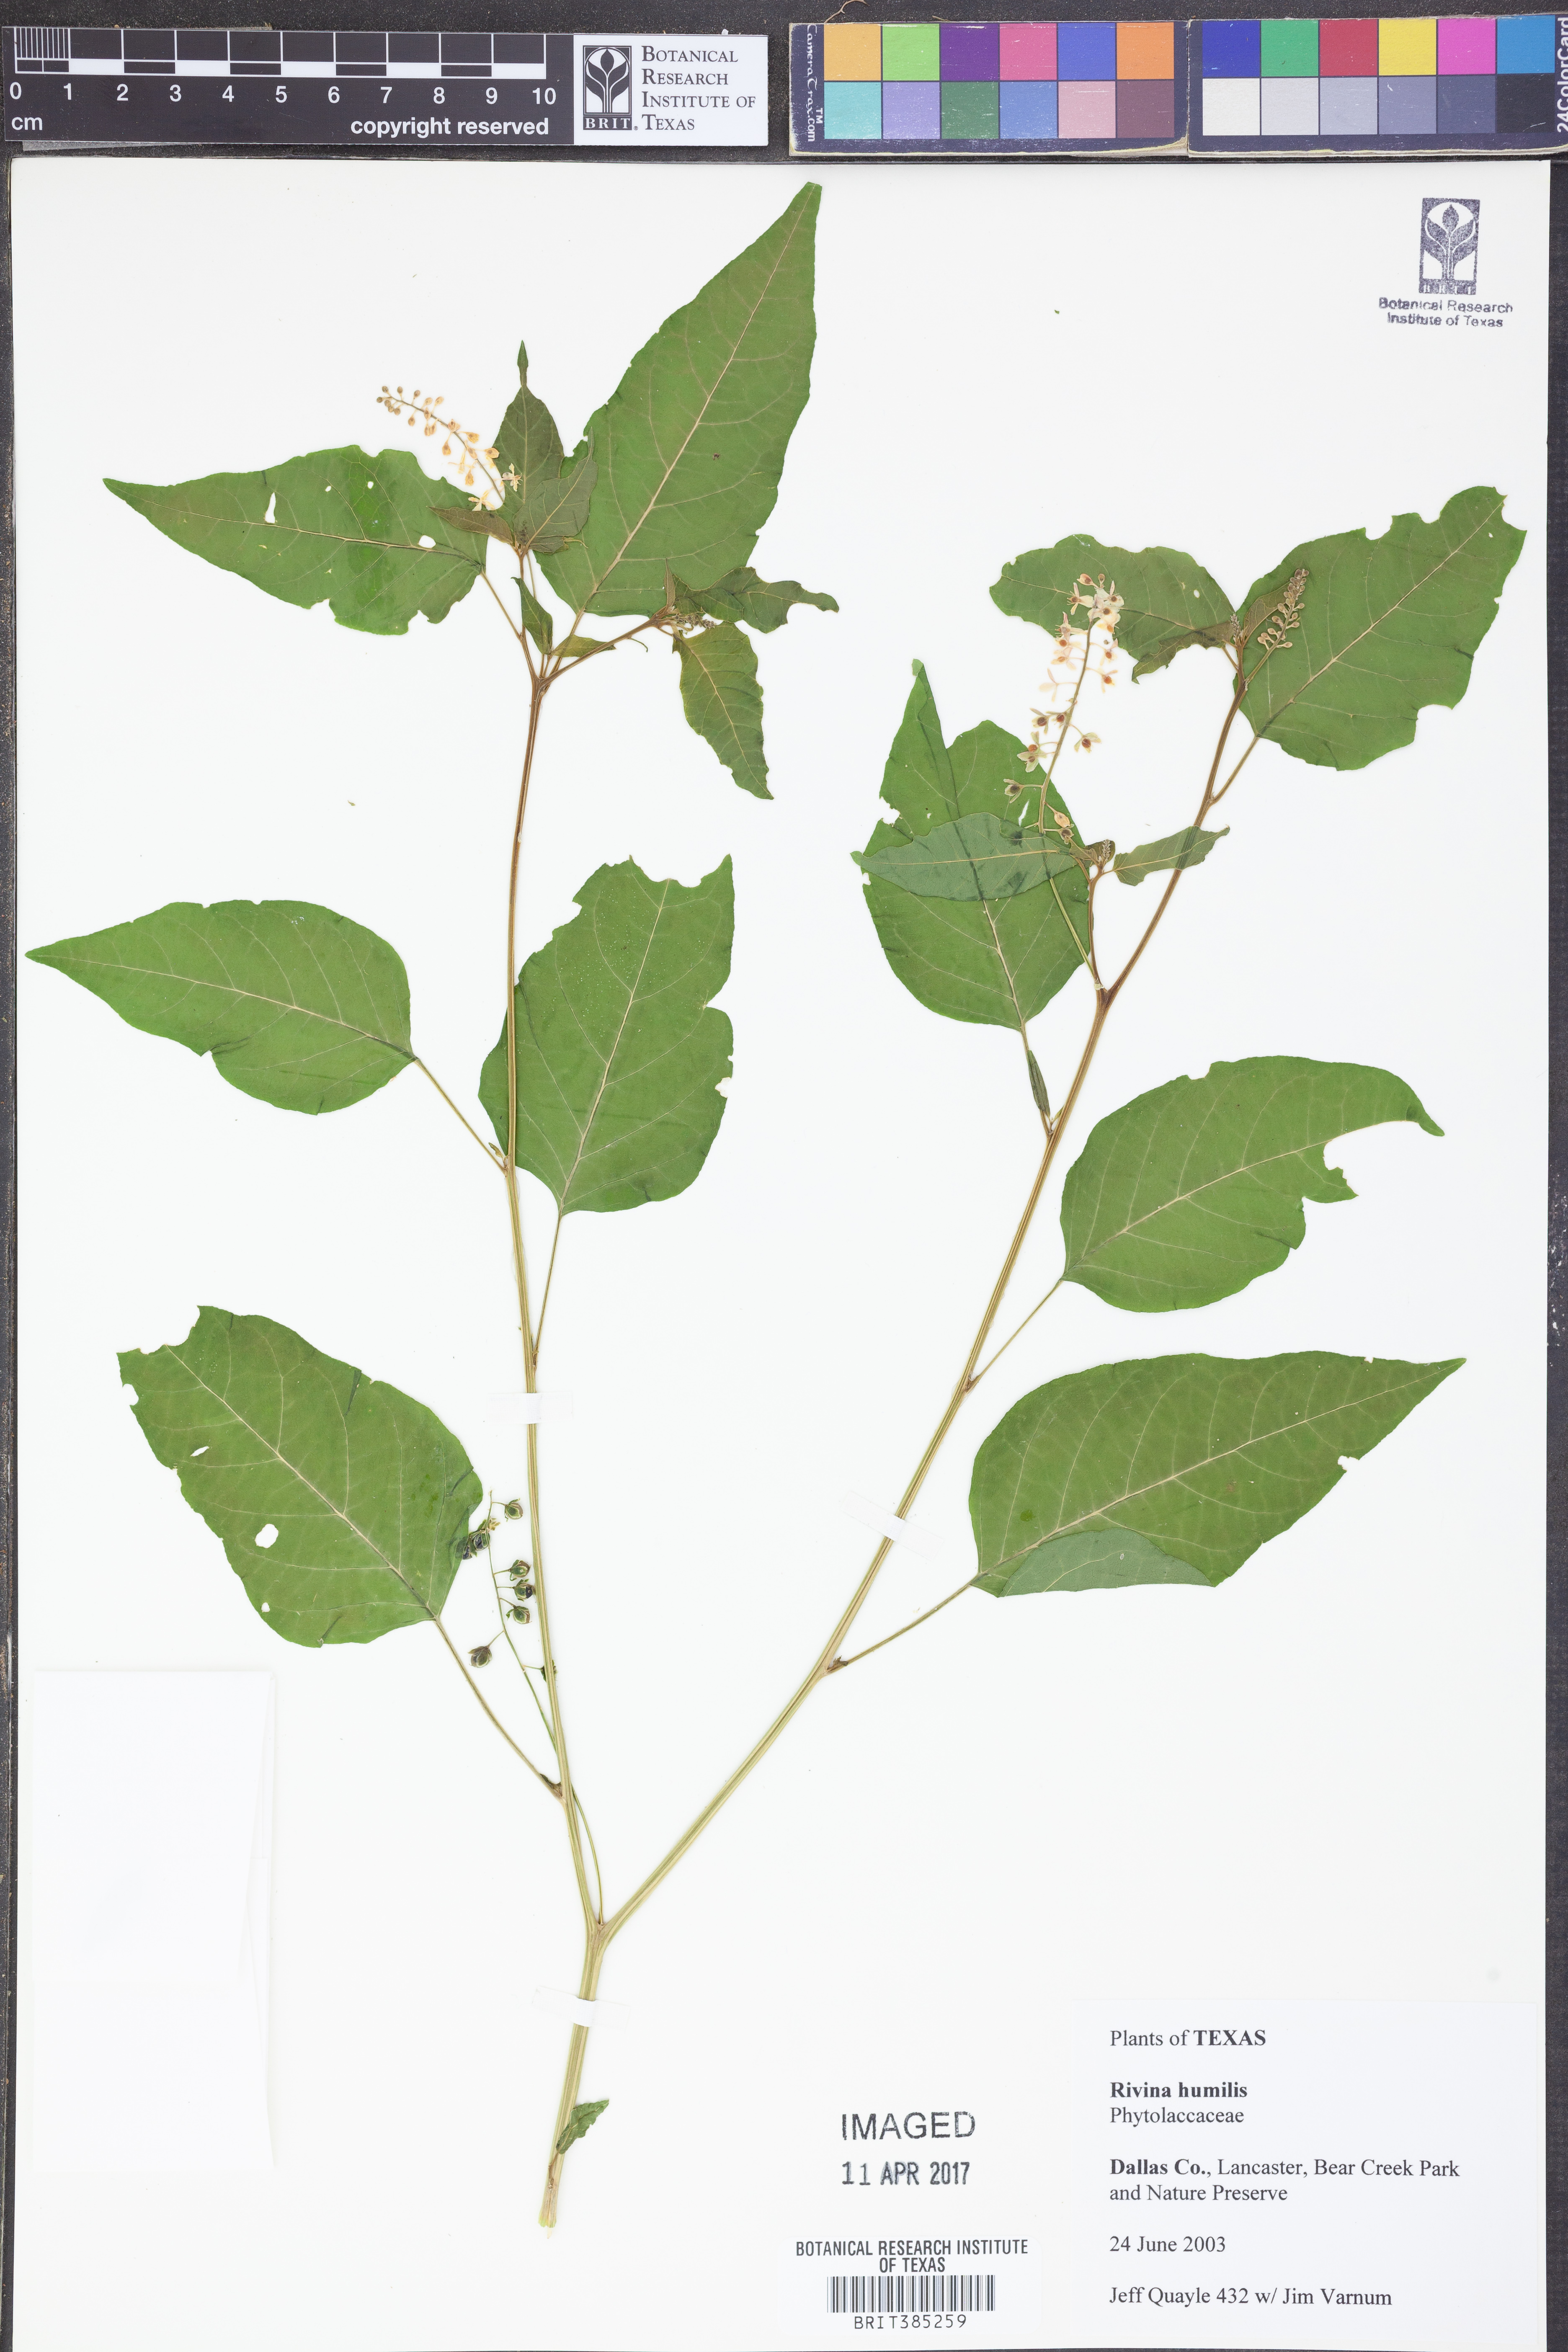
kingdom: Plantae
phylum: Tracheophyta
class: Magnoliopsida
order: Caryophyllales
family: Phytolaccaceae
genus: Rivina
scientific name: Rivina humilis
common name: Rougeplant
